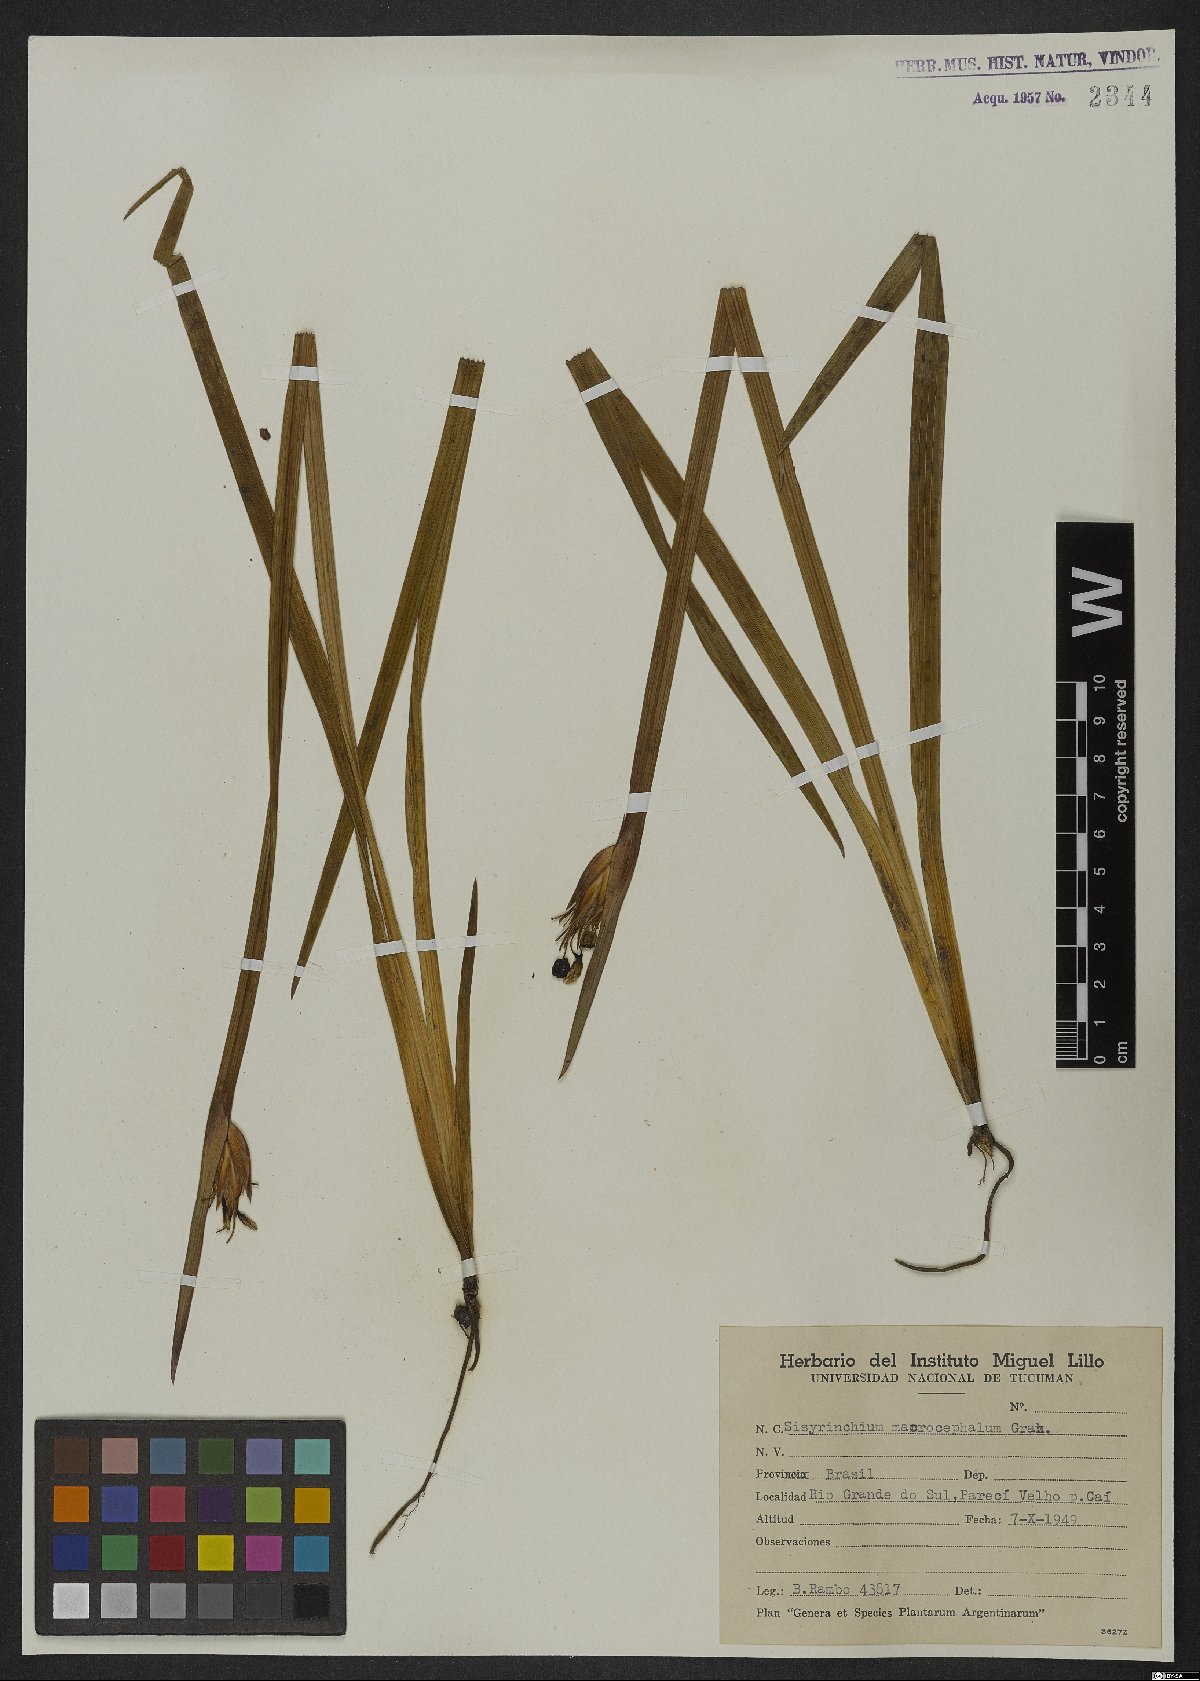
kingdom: Plantae
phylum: Tracheophyta
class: Liliopsida
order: Asparagales
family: Iridaceae
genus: Sisyrinchium
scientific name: Sisyrinchium palmifolium
